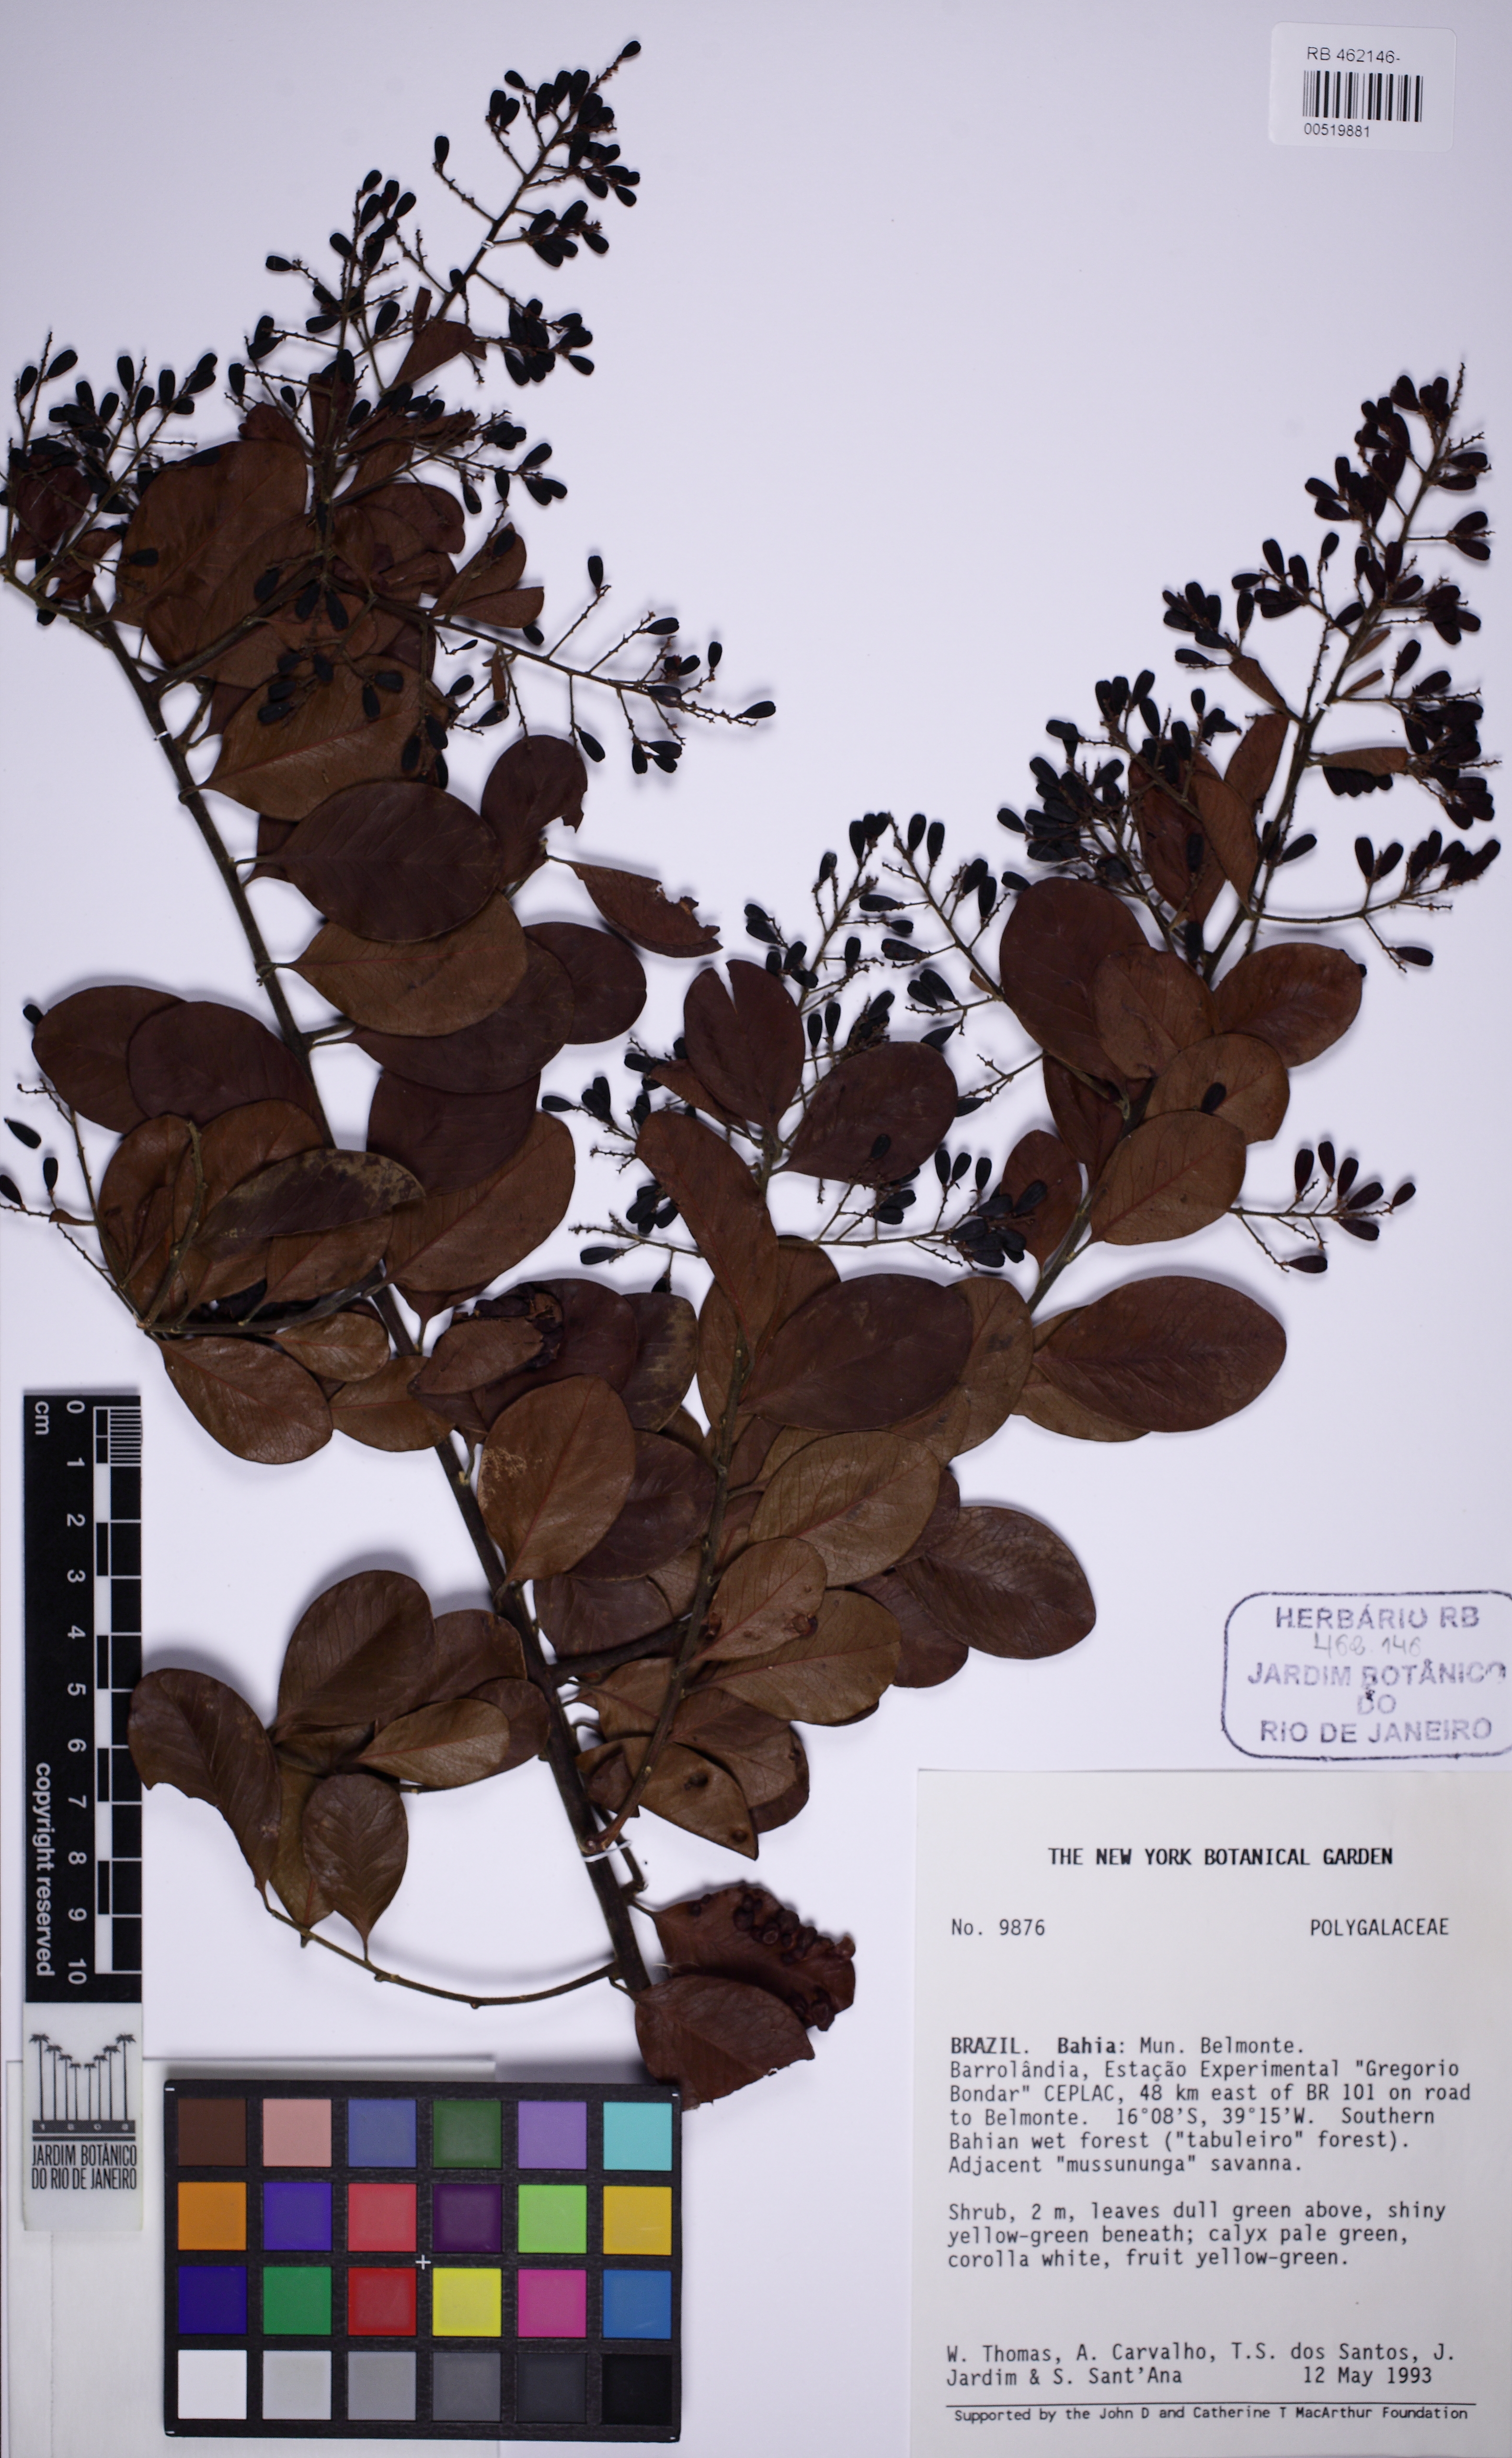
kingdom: Plantae
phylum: Tracheophyta
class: Magnoliopsida
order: Fabales
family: Polygalaceae
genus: Bredemeyera
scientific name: Bredemeyera hebeclada
